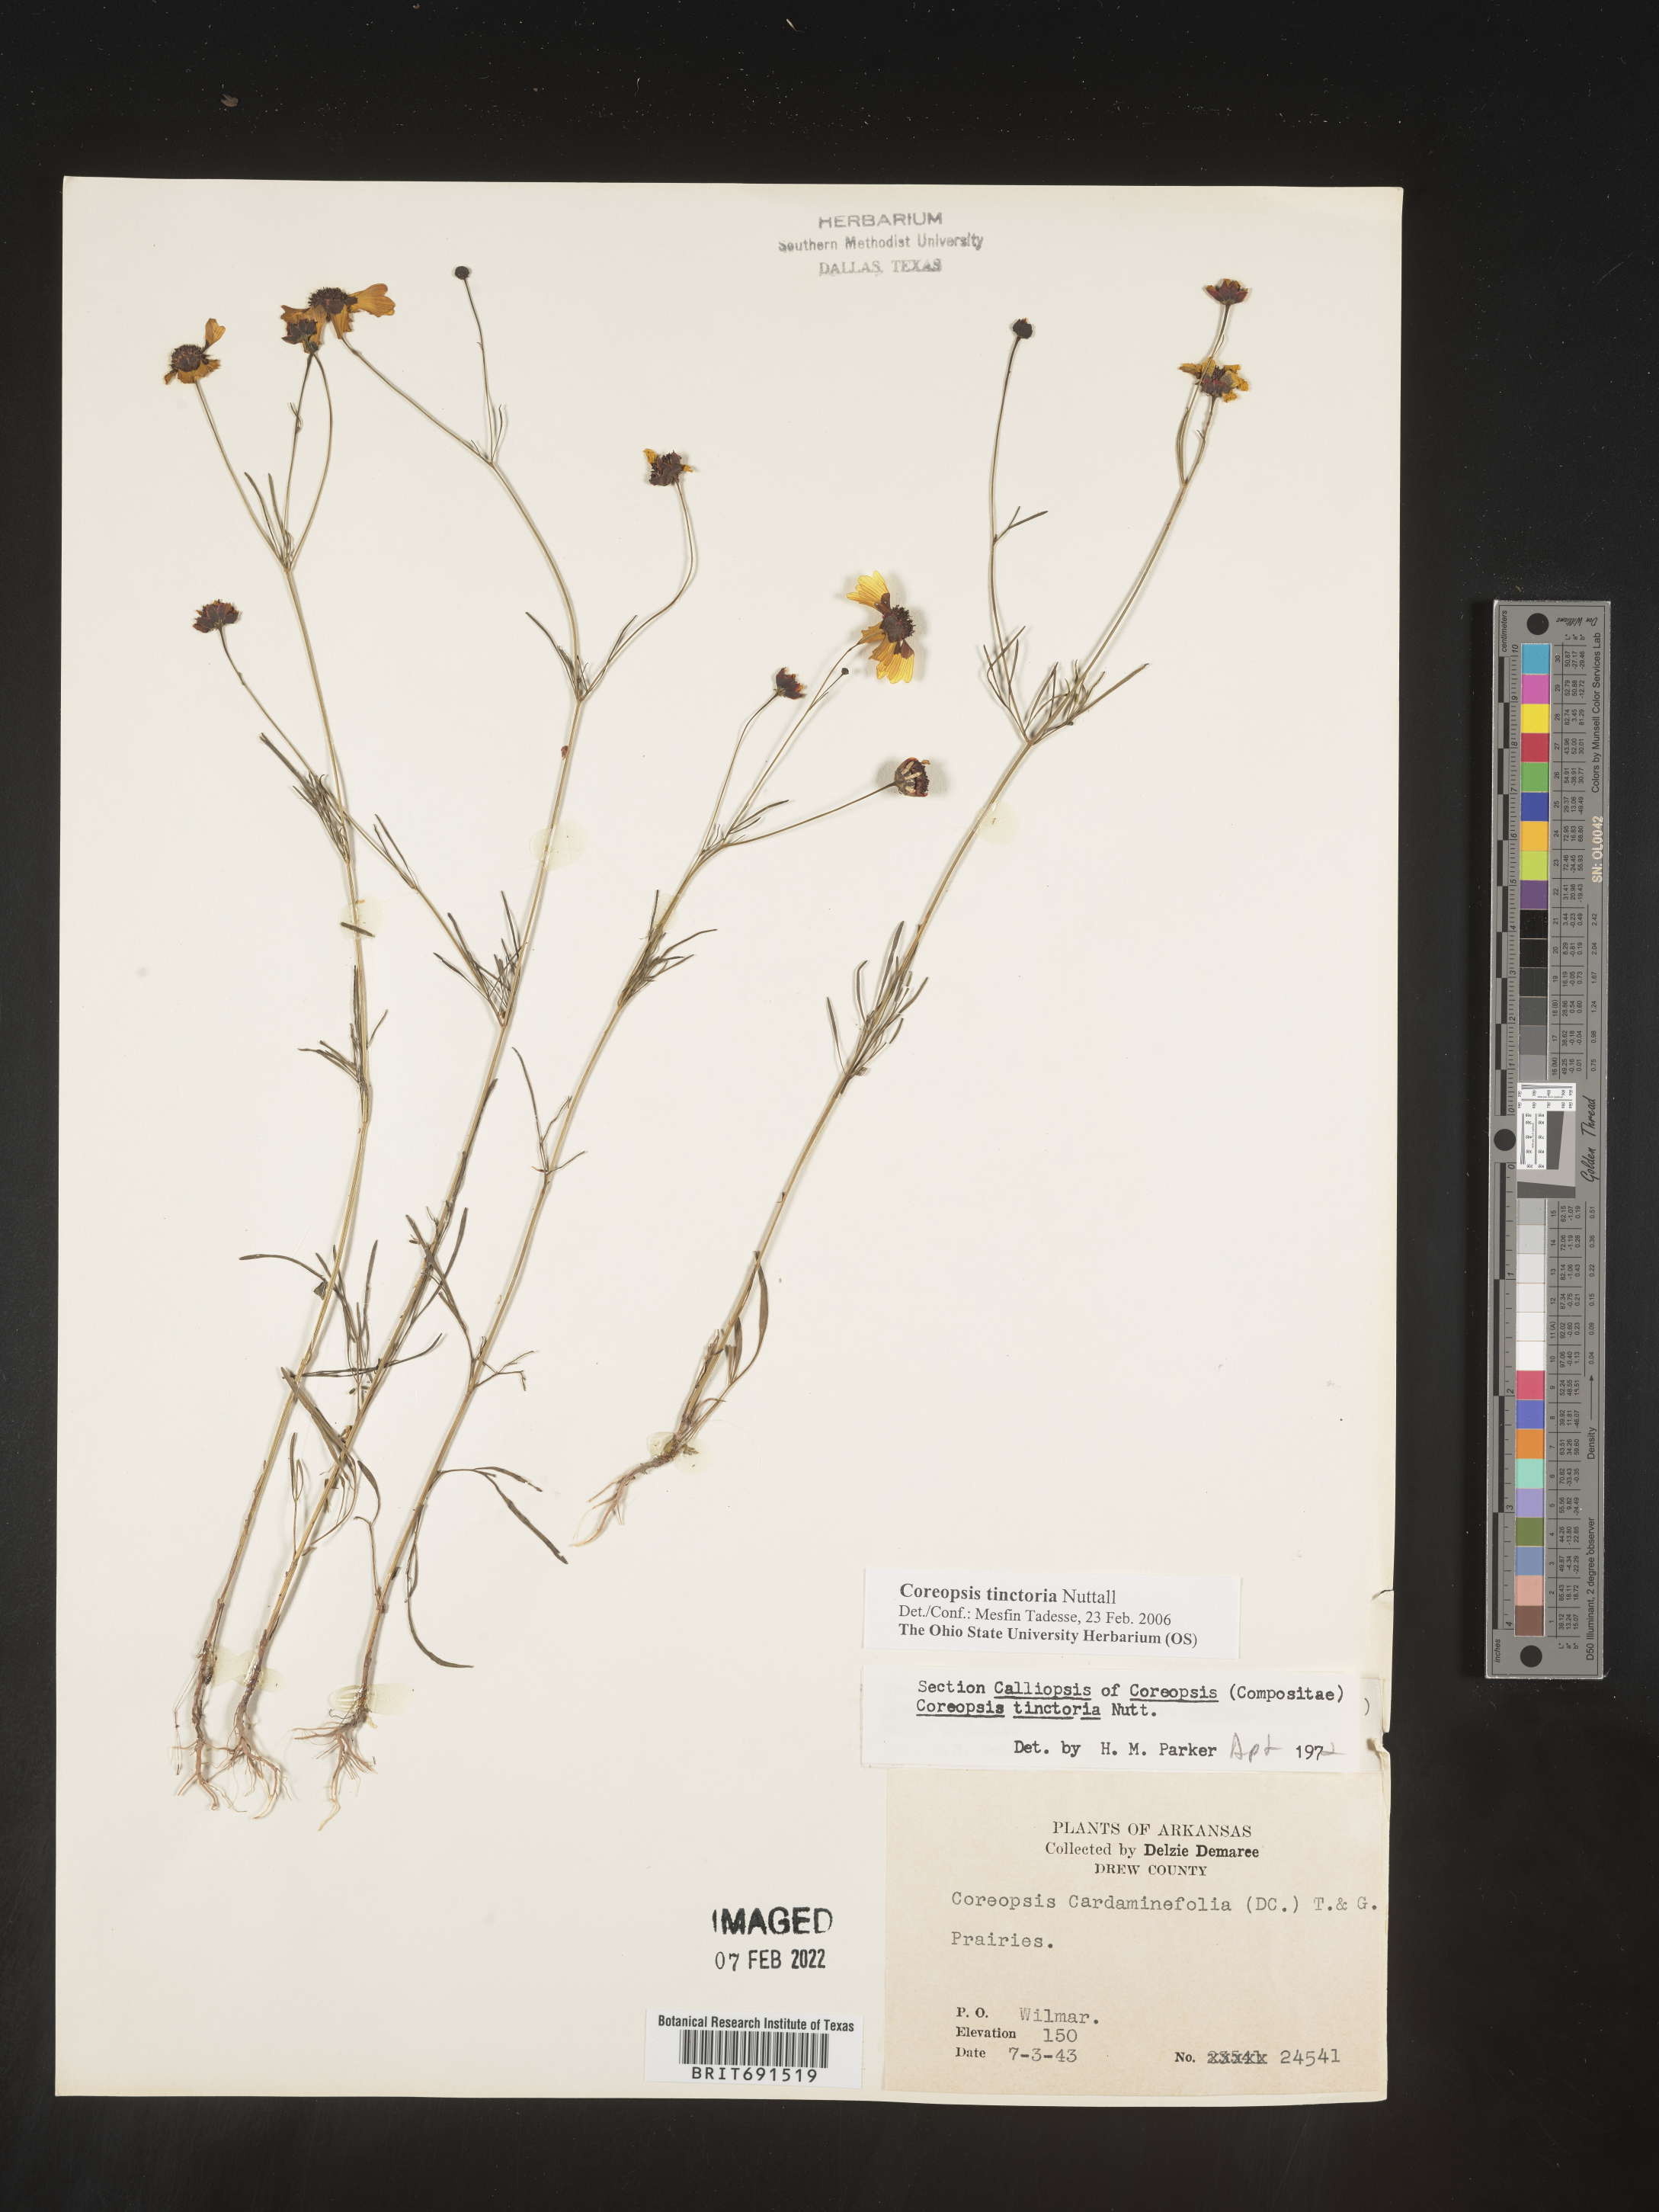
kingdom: Plantae
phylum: Tracheophyta
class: Magnoliopsida
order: Asterales
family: Asteraceae
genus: Coreopsis
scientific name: Coreopsis tinctoria
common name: Garden tickseed
